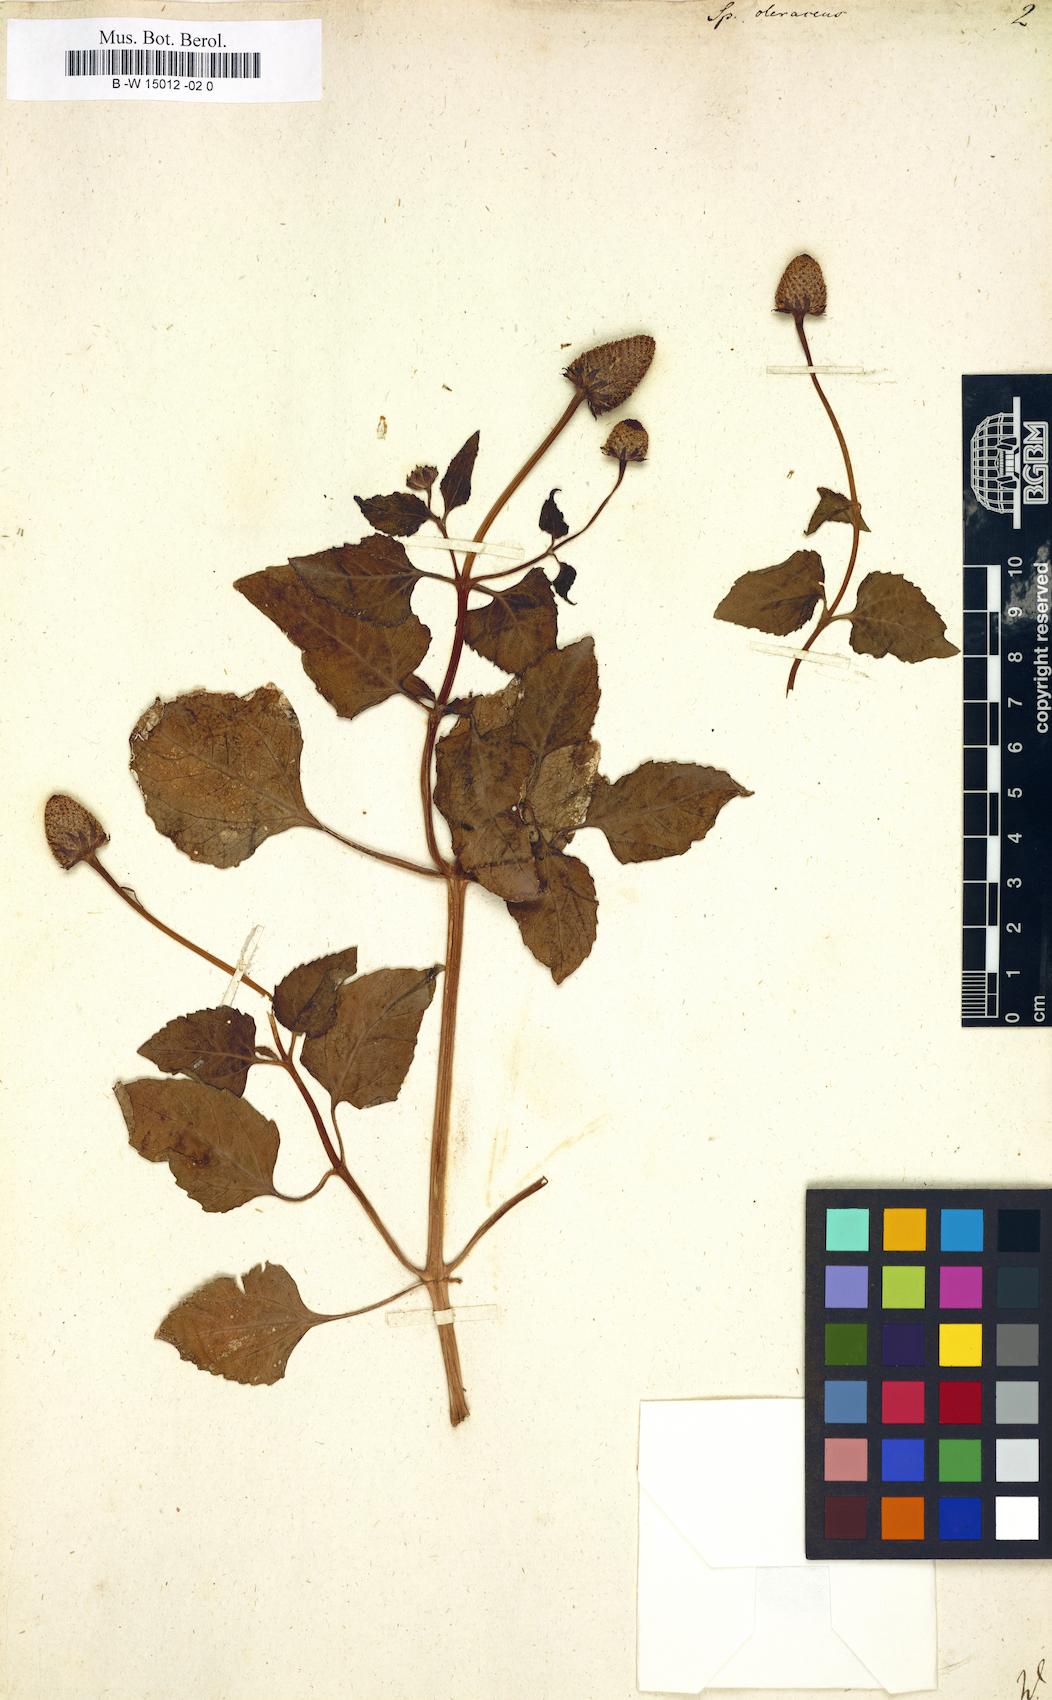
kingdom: Plantae
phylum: Tracheophyta
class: Magnoliopsida
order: Asterales
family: Asteraceae
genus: Acmella
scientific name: Acmella oleracea
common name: Brazilian cress
